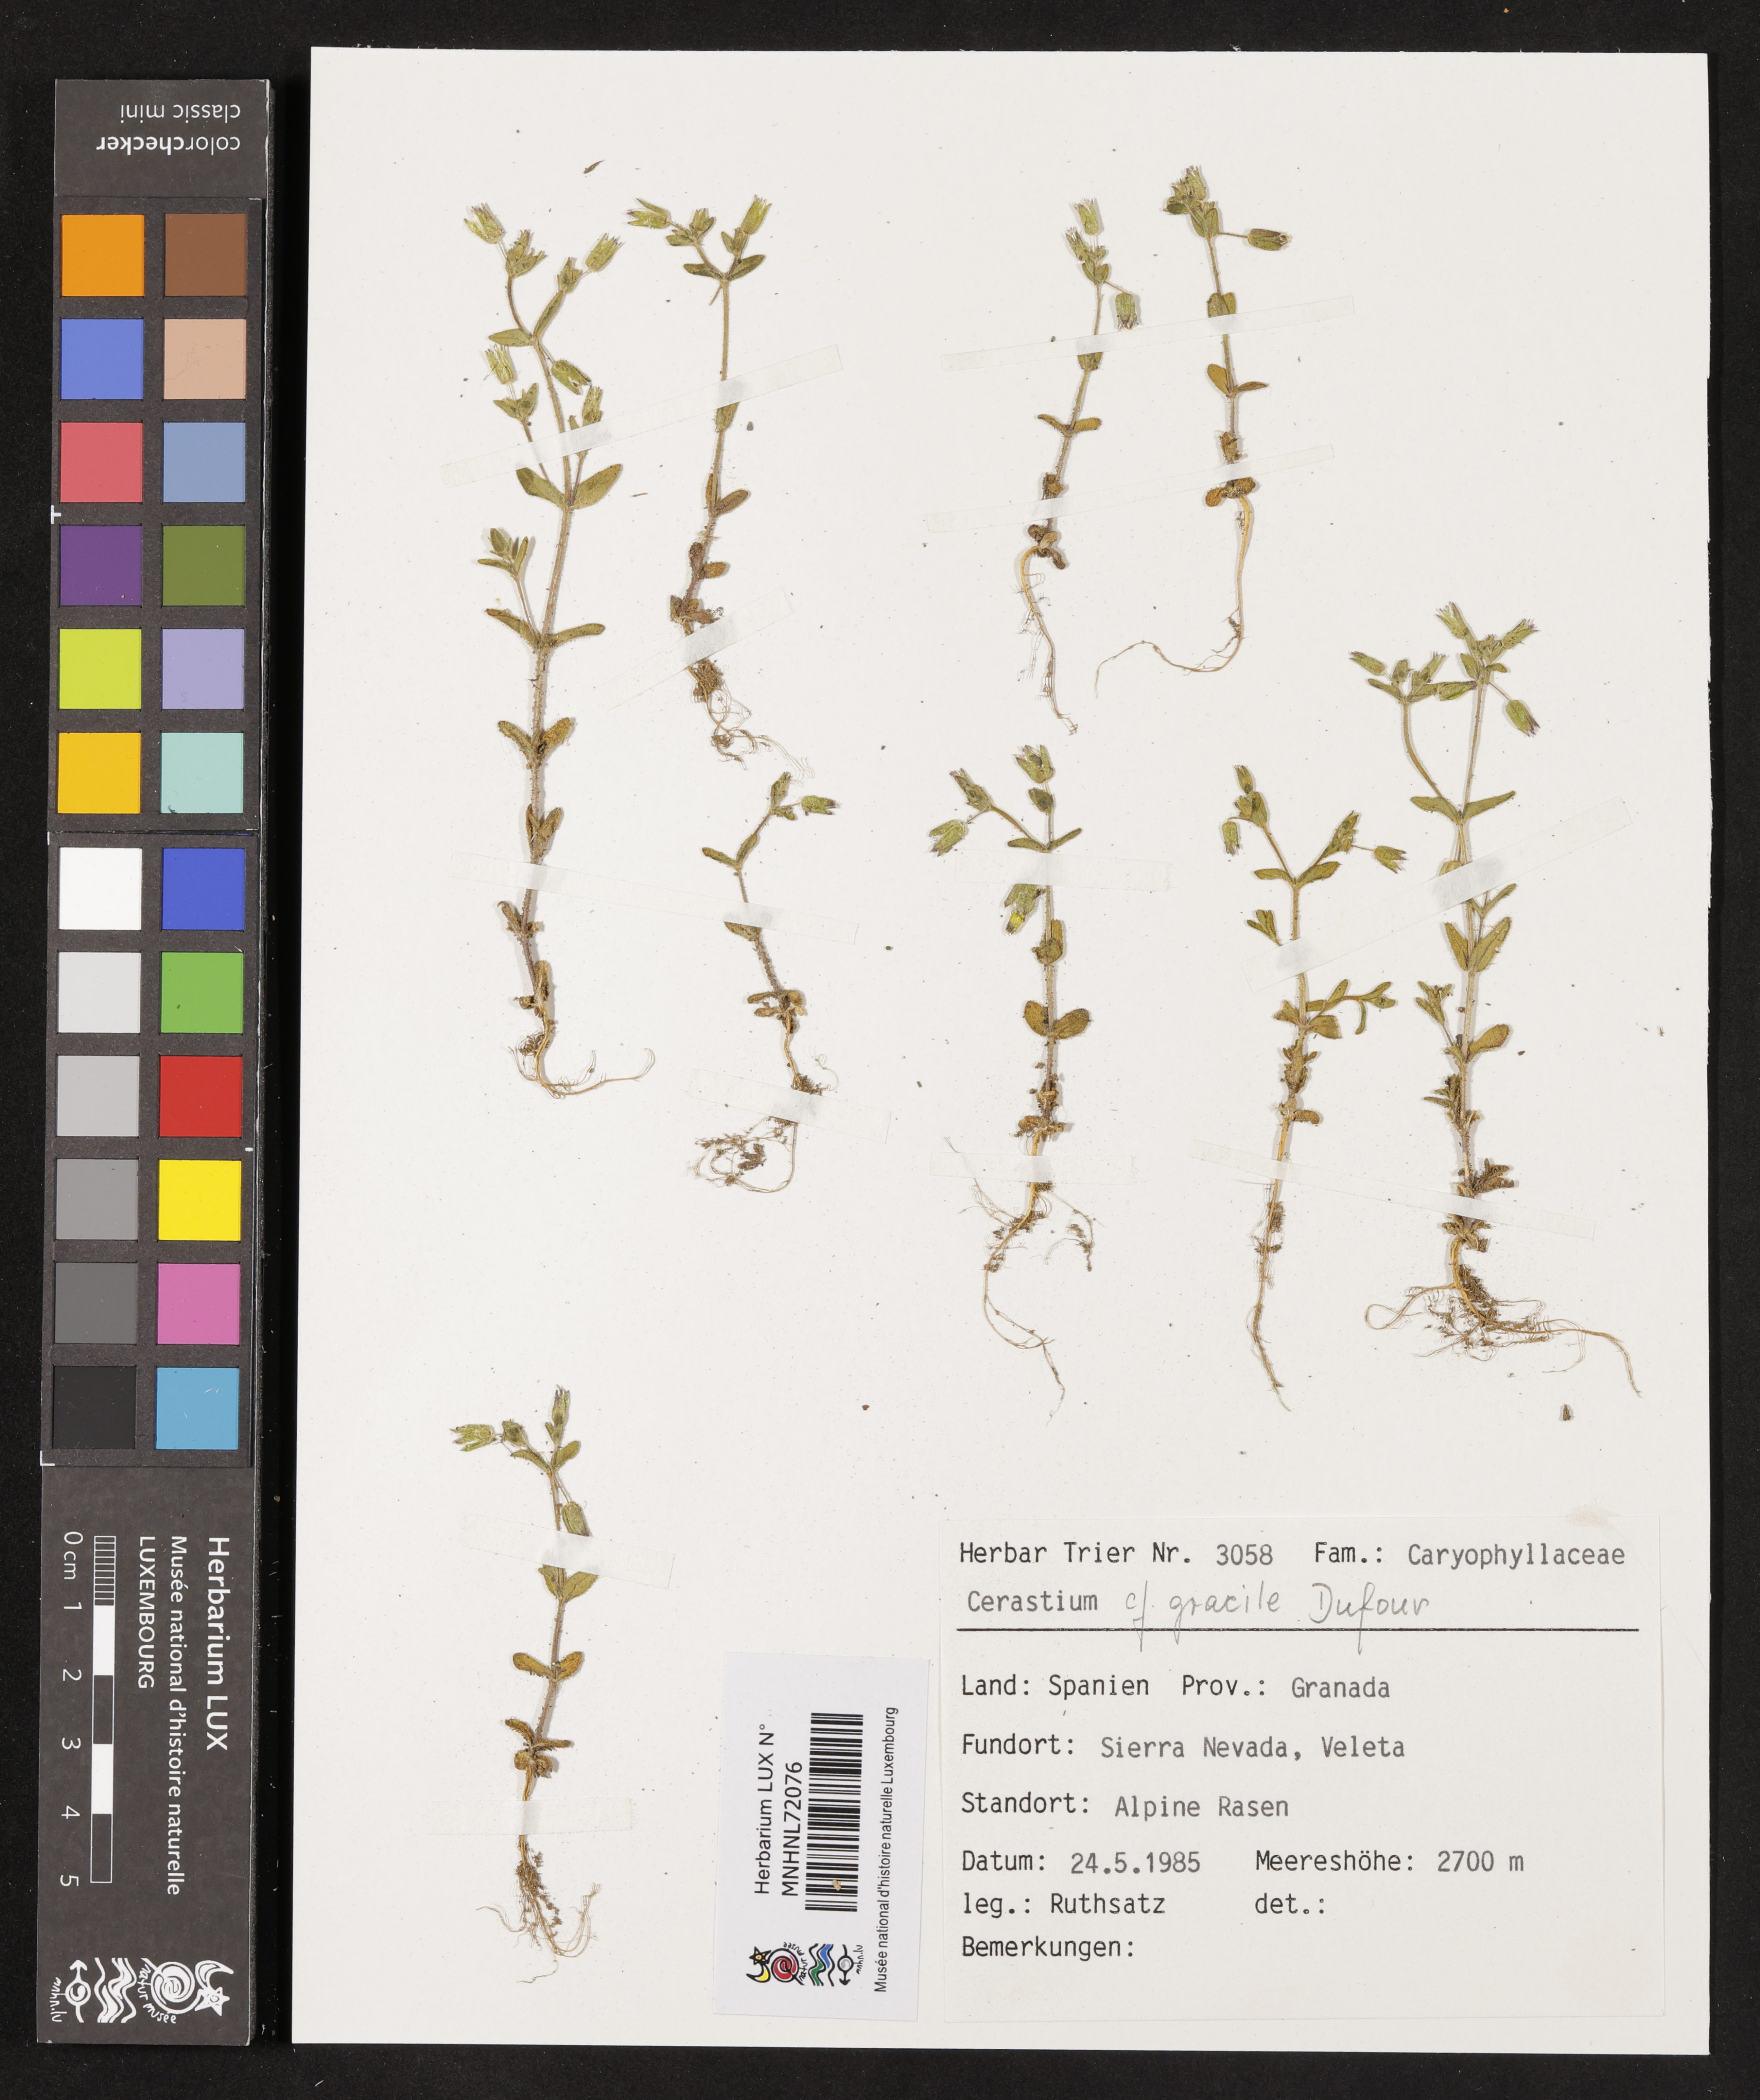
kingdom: Plantae
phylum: Tracheophyta
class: Magnoliopsida
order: Caryophyllales
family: Caryophyllaceae
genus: Cerastium
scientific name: Cerastium gracile
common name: Slender chickweed
